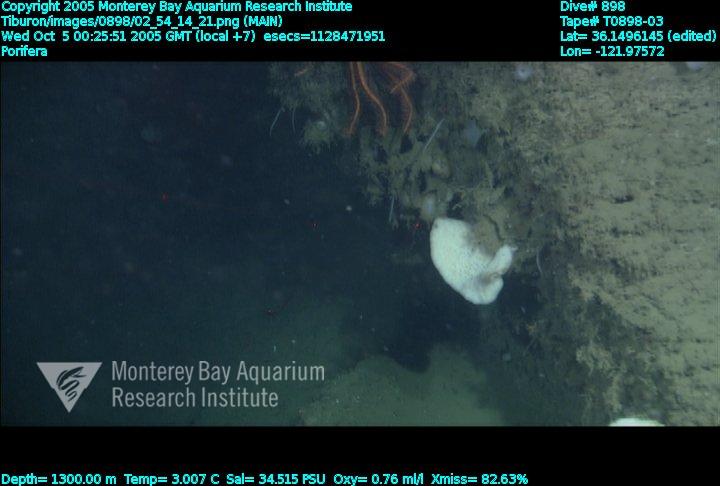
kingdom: Animalia
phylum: Porifera
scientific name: Porifera
